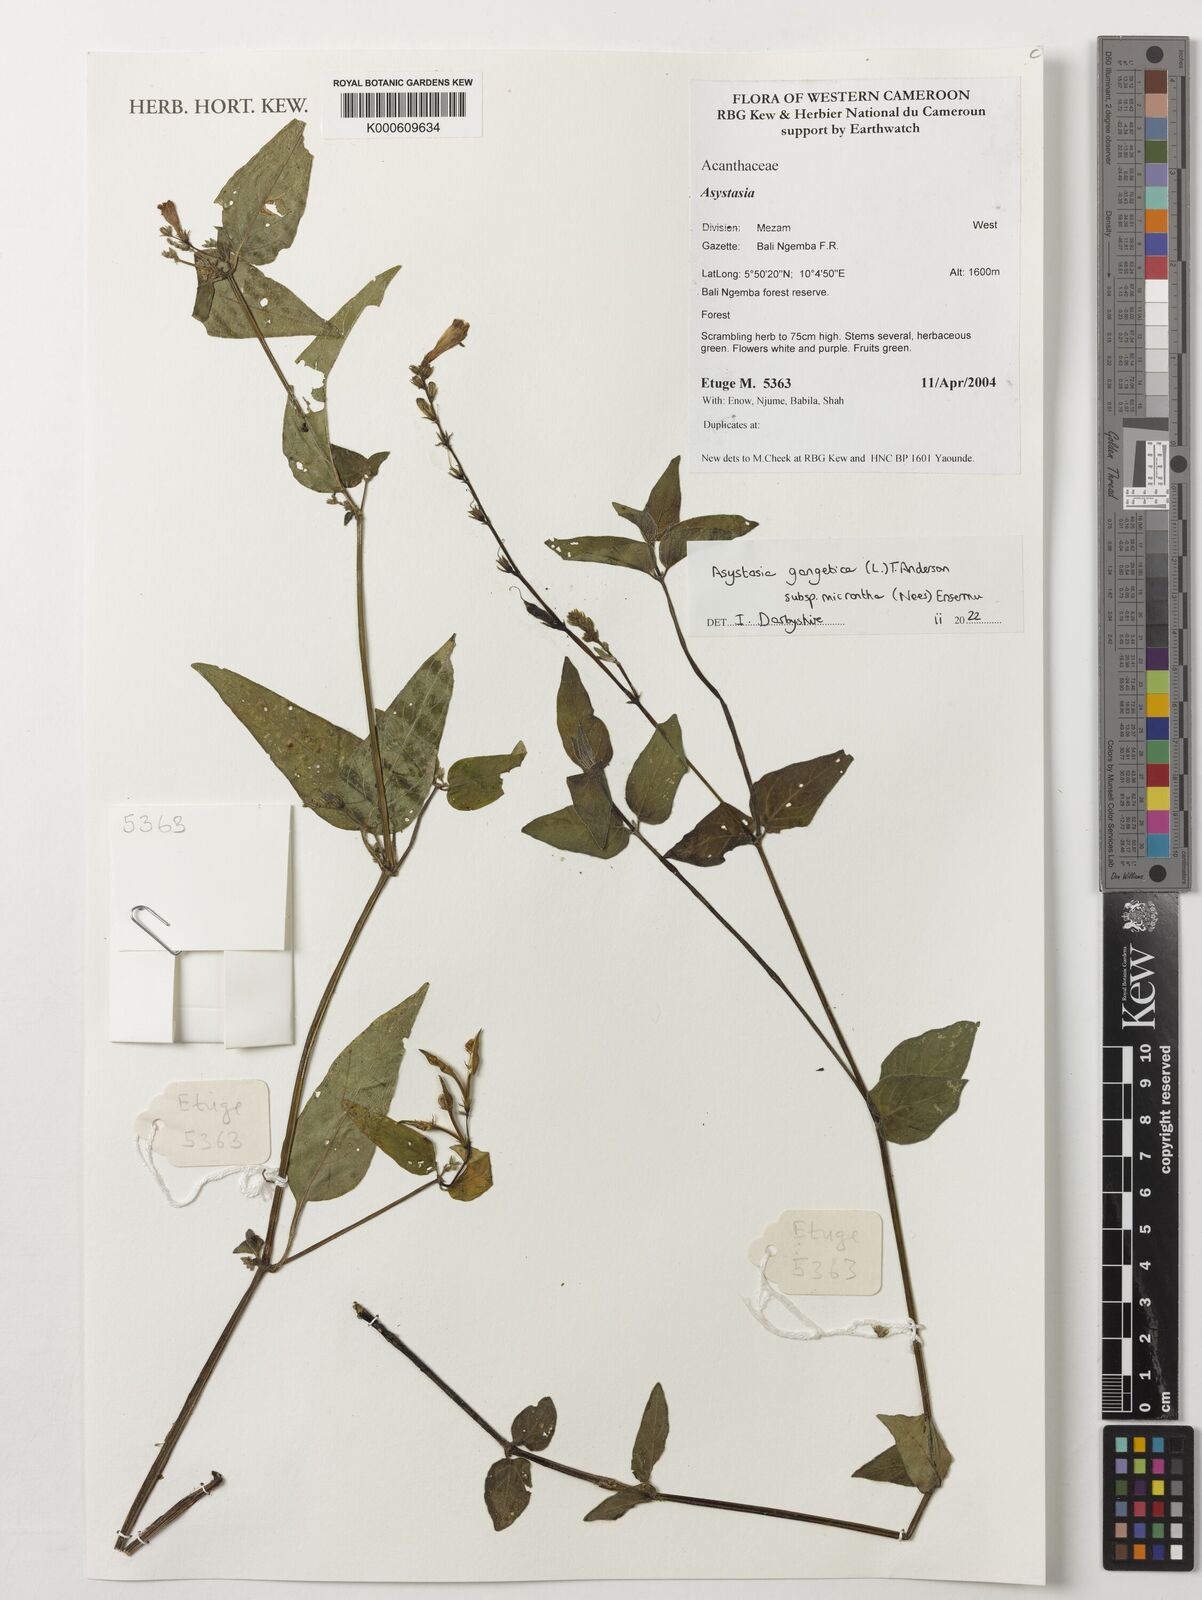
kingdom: Plantae
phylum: Tracheophyta
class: Magnoliopsida
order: Lamiales
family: Acanthaceae
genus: Asystasia
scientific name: Asystasia gangetica
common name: Chinese violet
